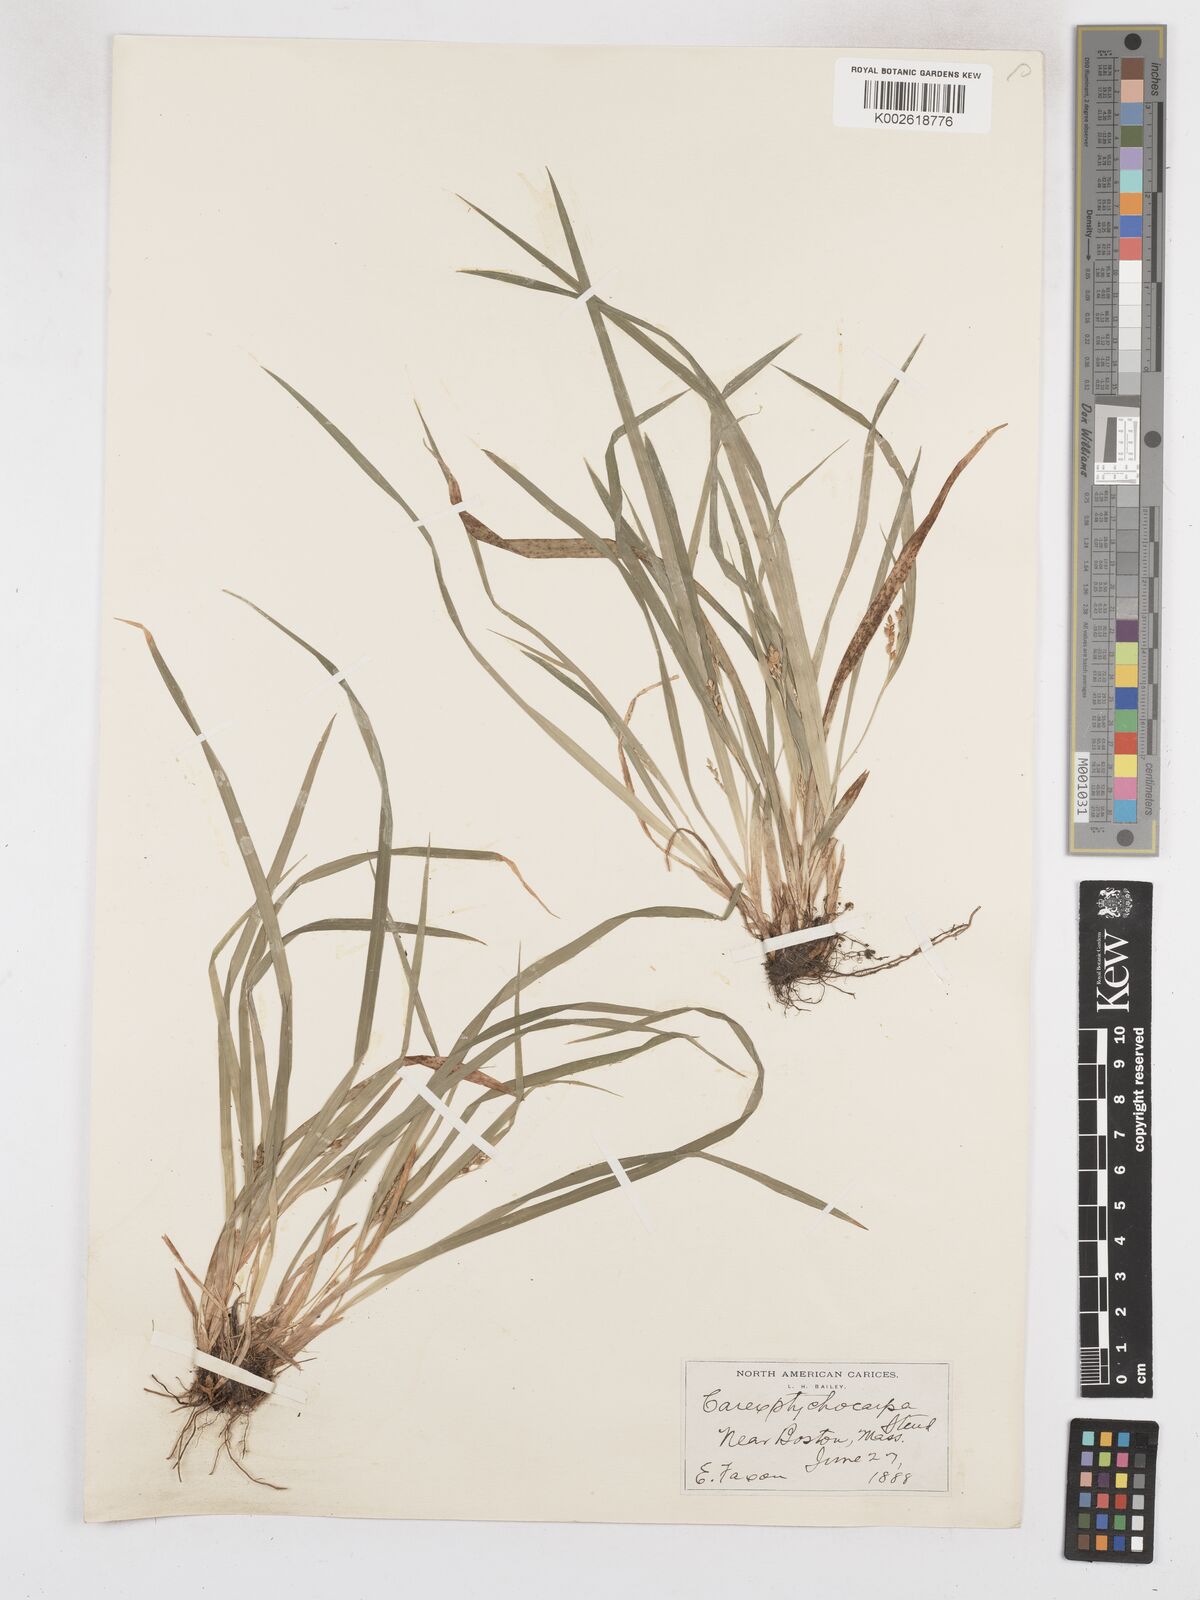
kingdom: Plantae
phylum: Tracheophyta
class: Liliopsida
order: Poales
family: Cyperaceae
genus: Carex
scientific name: Carex abscondita
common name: Thicket sedge
